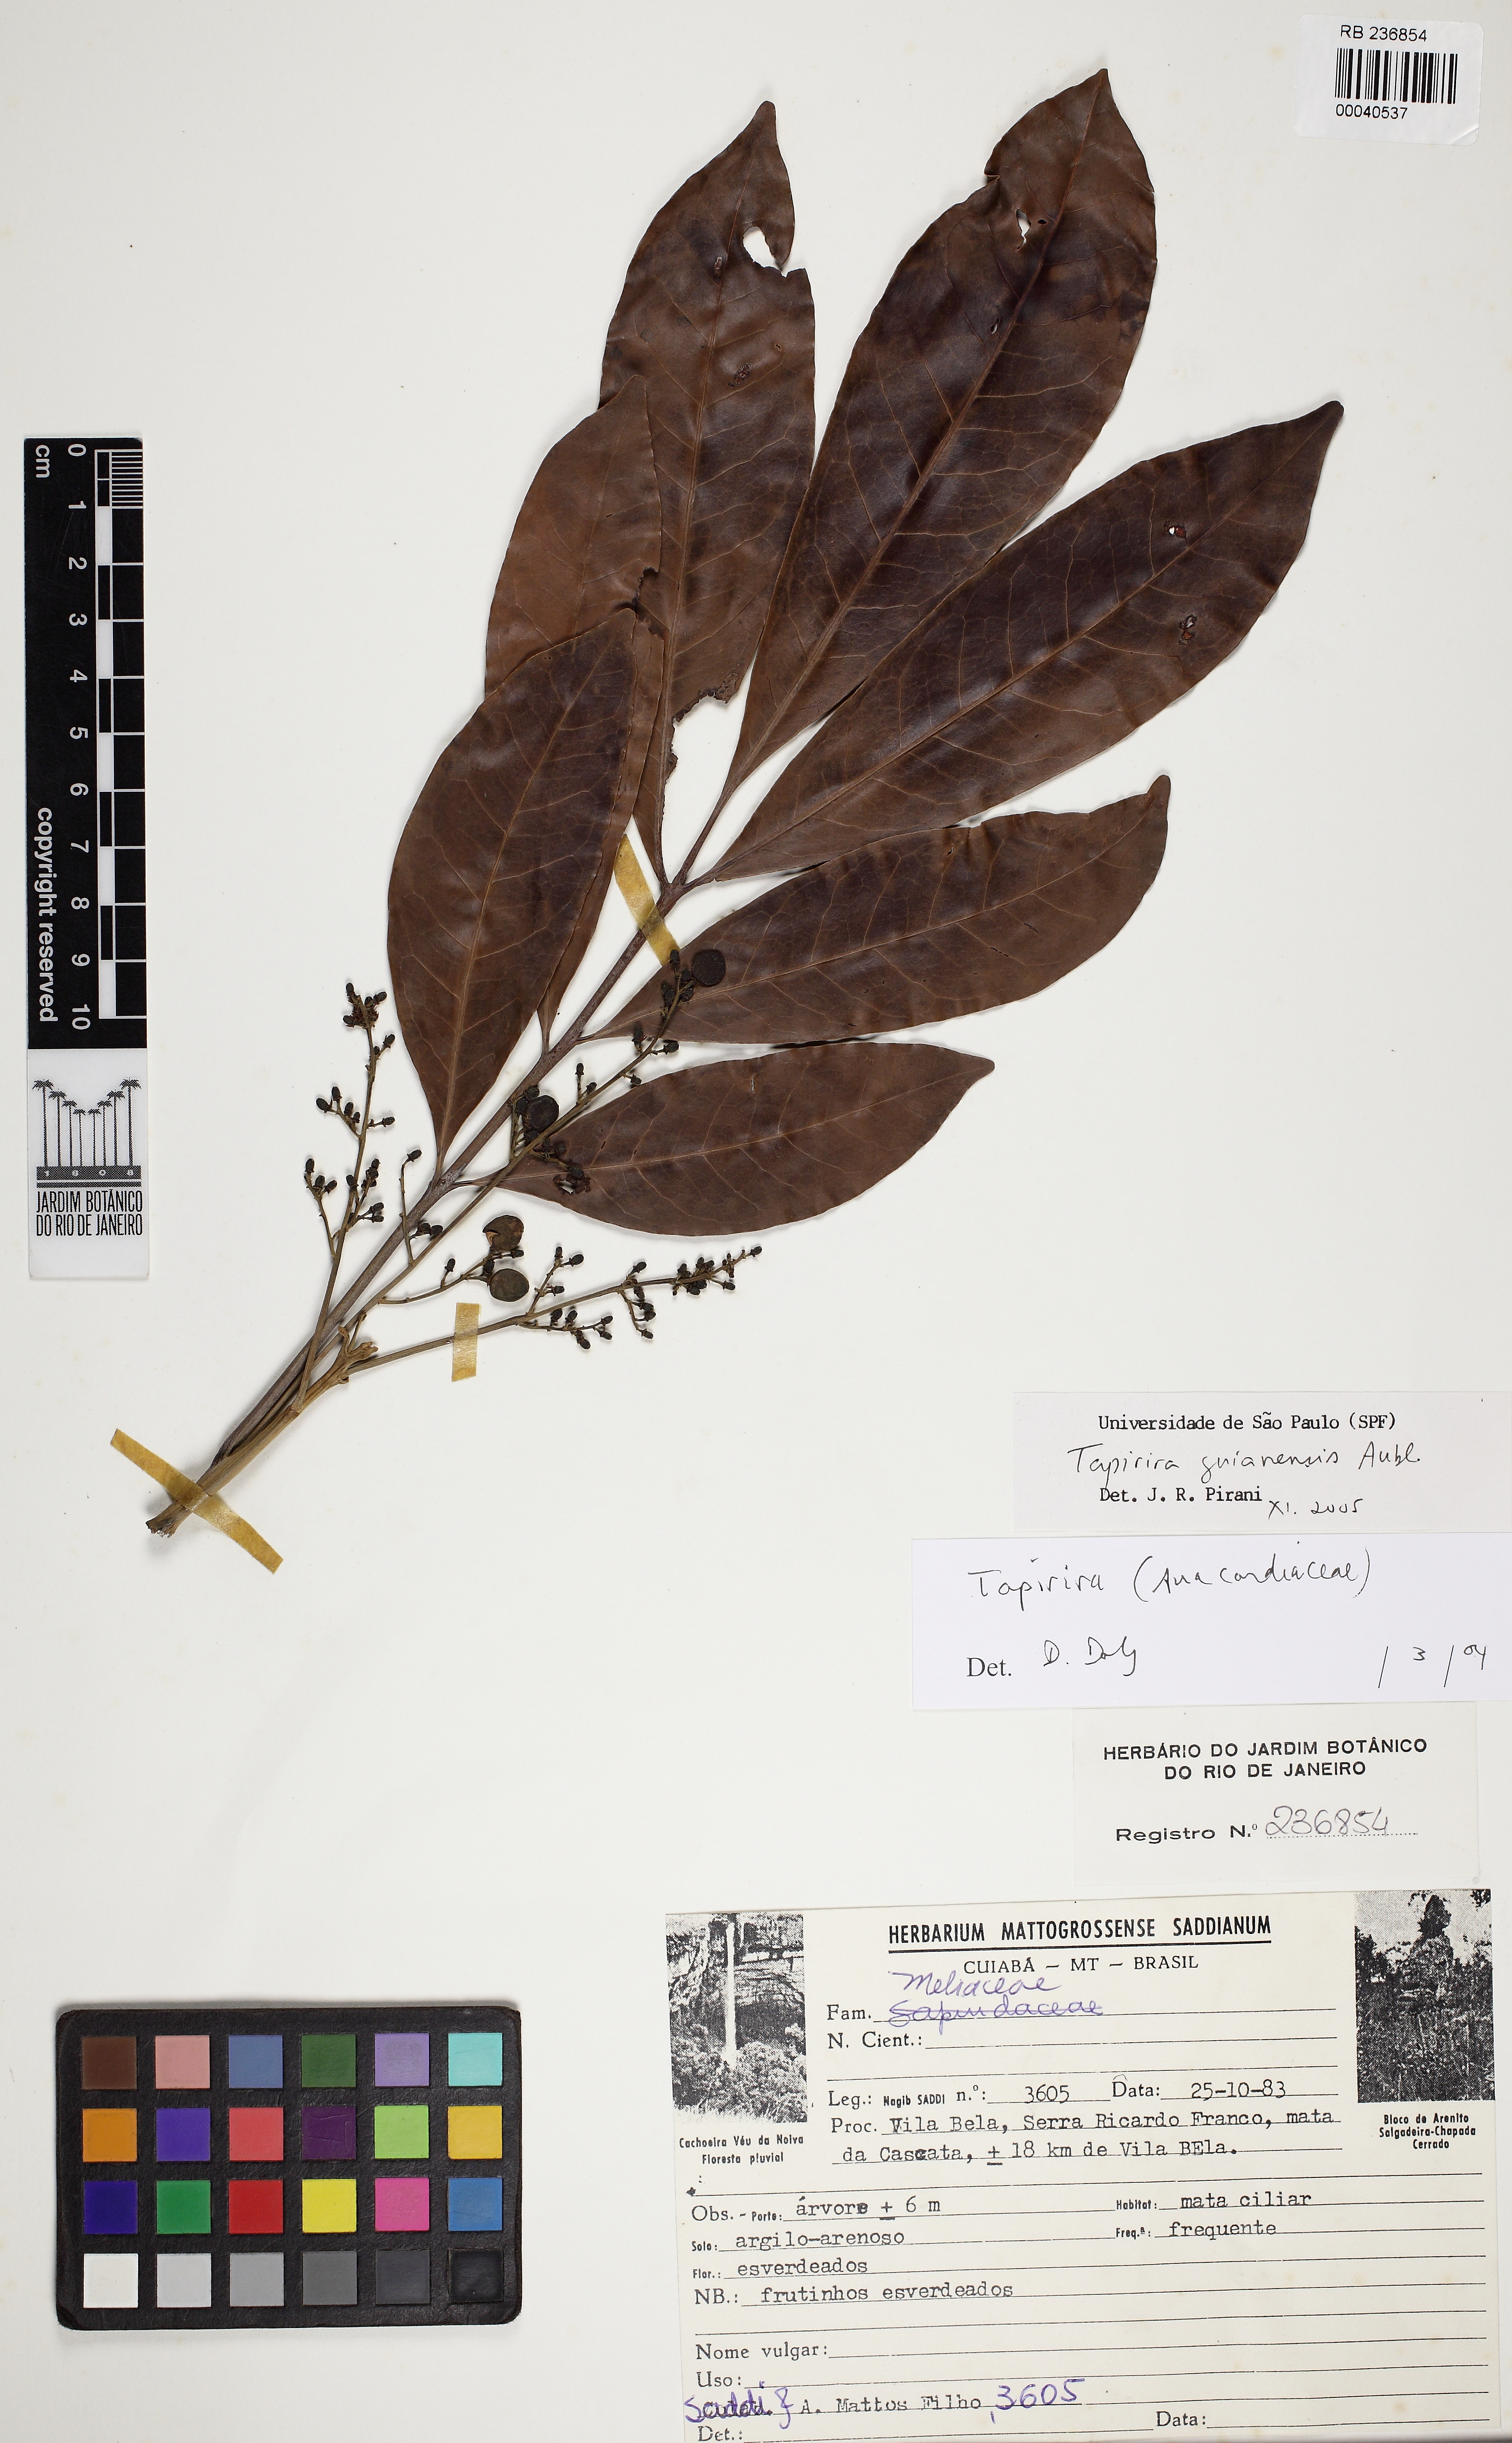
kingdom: Plantae
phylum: Tracheophyta
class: Magnoliopsida
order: Sapindales
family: Anacardiaceae
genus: Tapirira
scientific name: Tapirira guianensis
